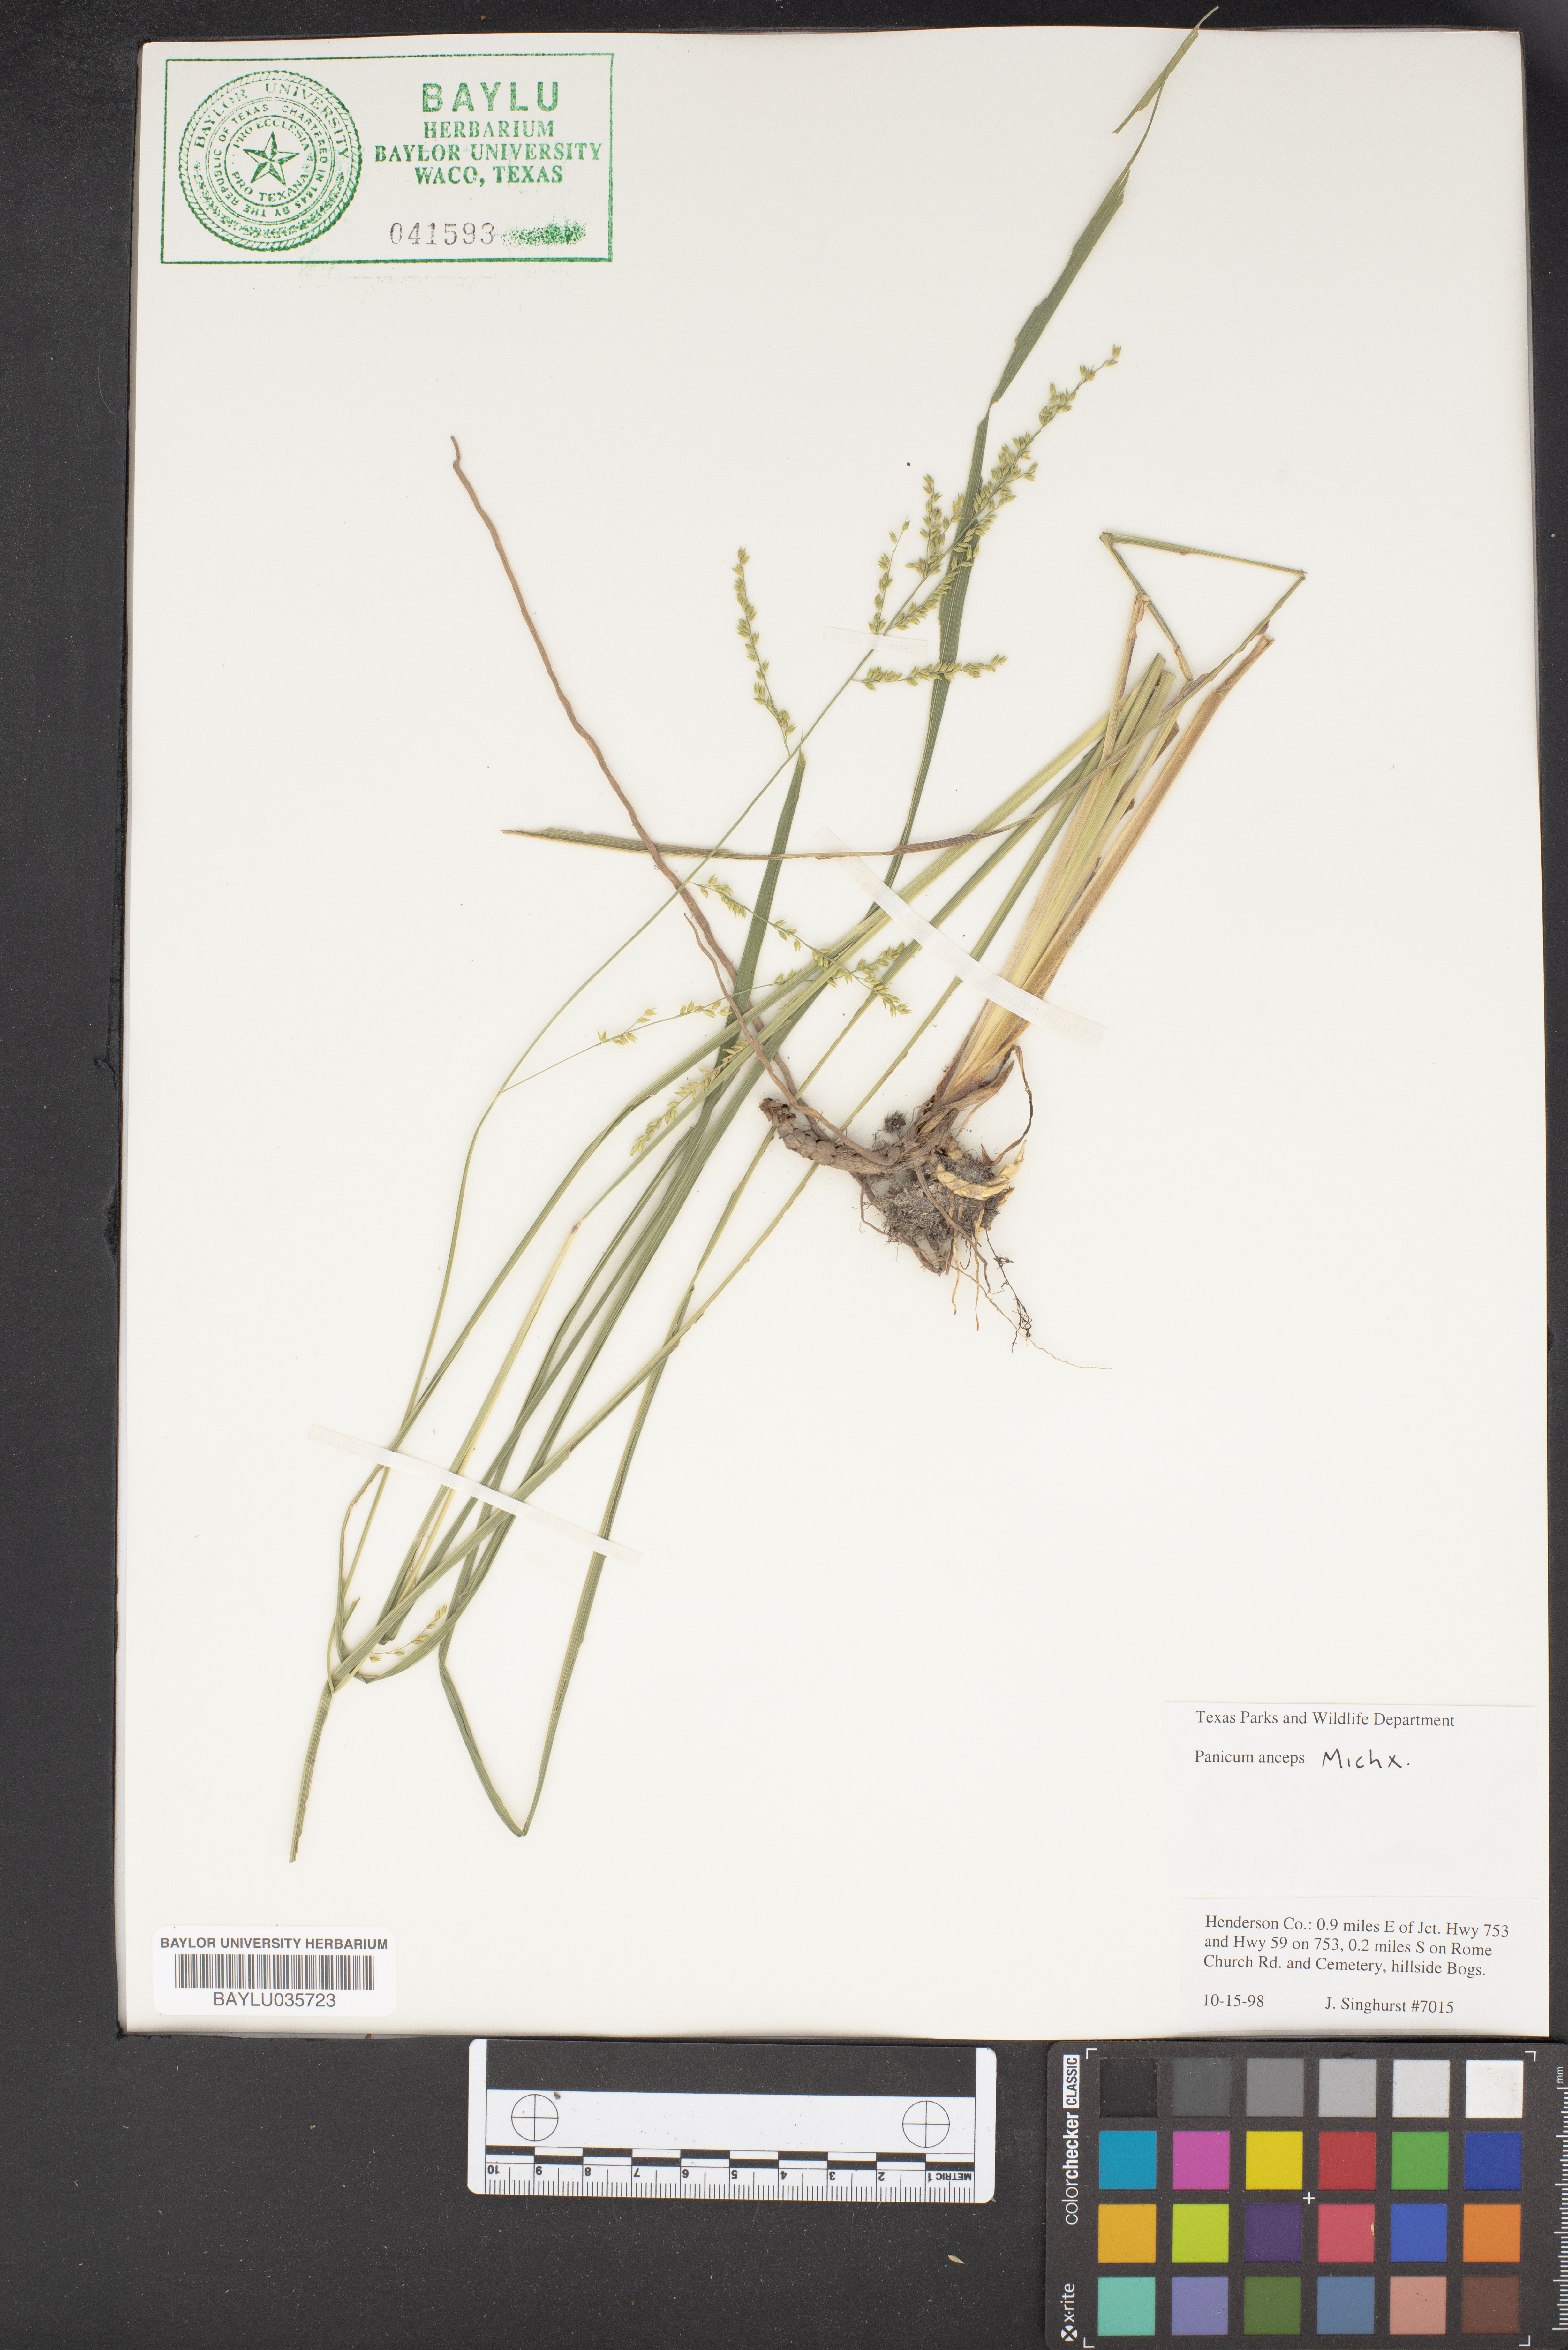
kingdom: Plantae
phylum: Tracheophyta
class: Liliopsida
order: Poales
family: Poaceae
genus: Coleataenia
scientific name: Coleataenia anceps
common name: Beaked panic grass
